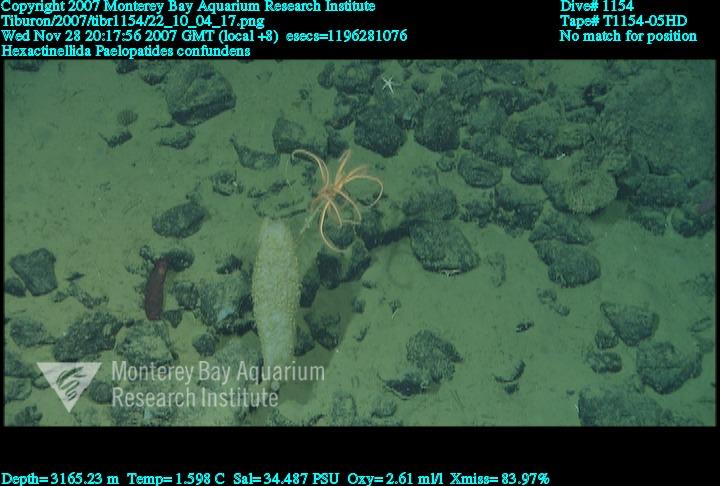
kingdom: Animalia
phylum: Porifera
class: Hexactinellida
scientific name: Hexactinellida
